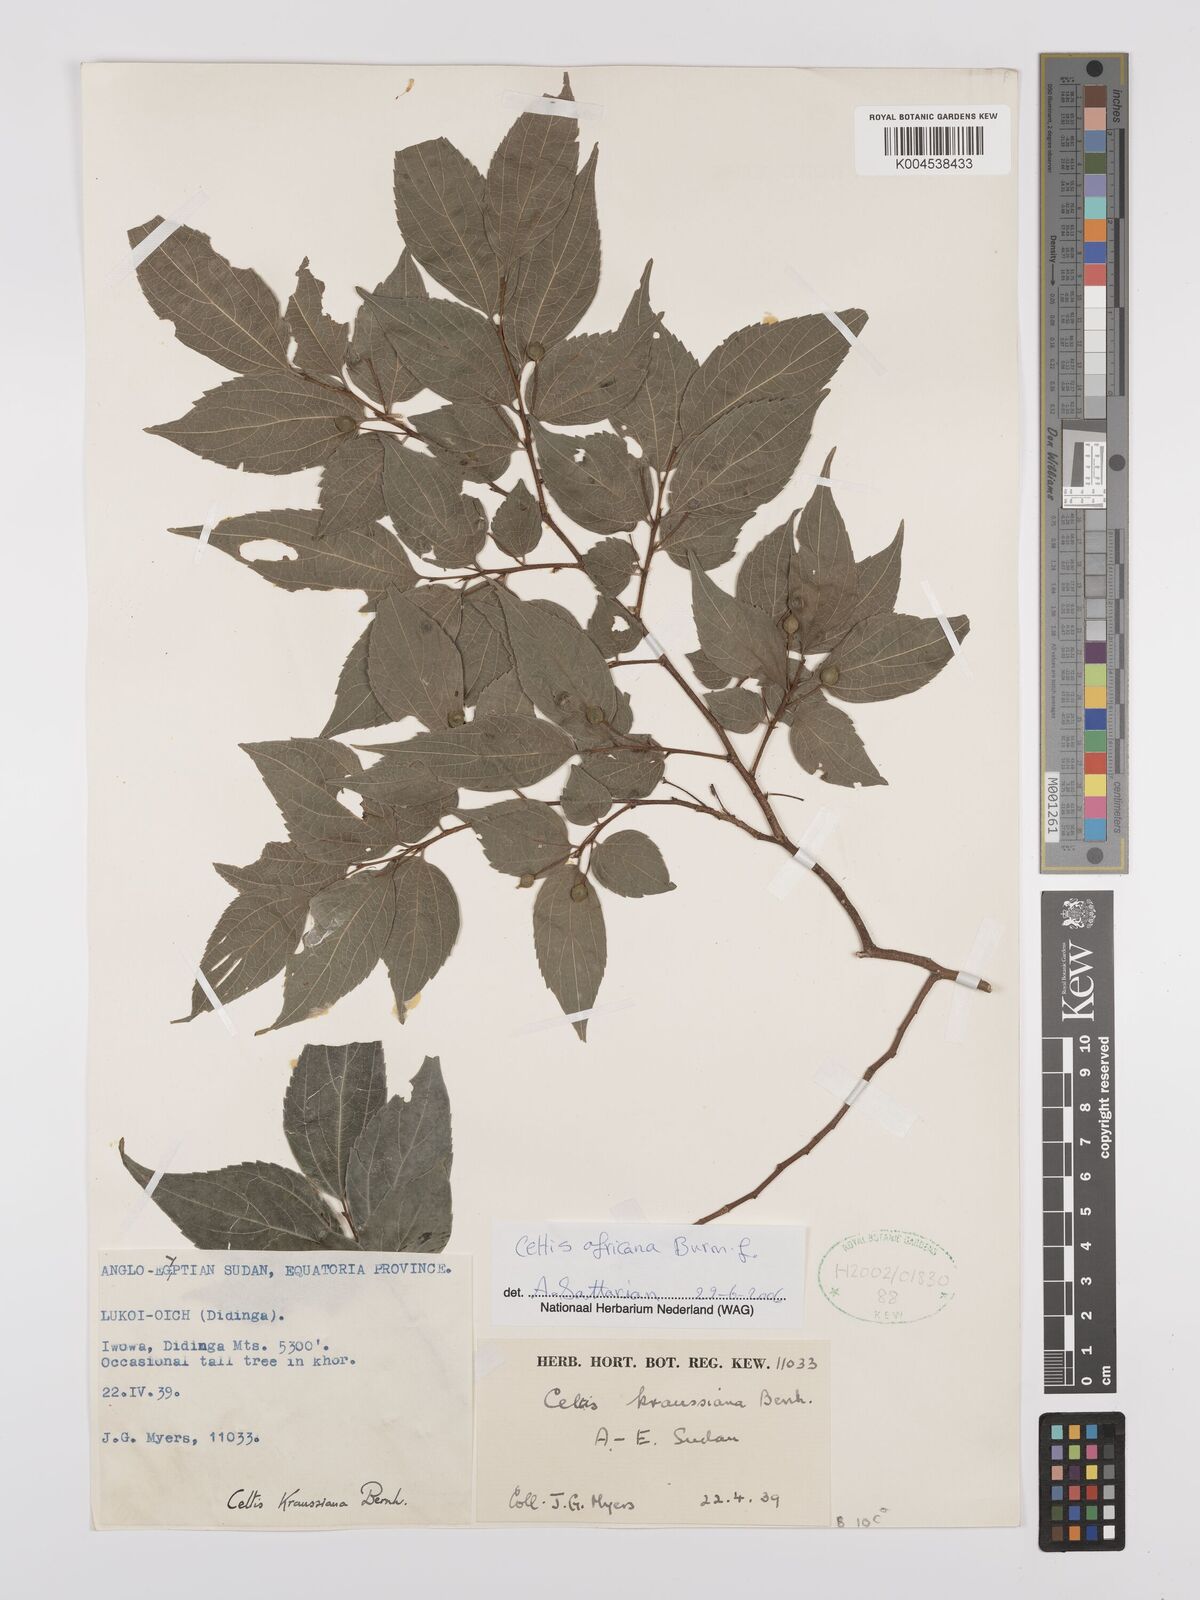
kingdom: Plantae
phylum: Tracheophyta
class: Magnoliopsida
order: Rosales
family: Cannabaceae
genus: Celtis
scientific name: Celtis africana
